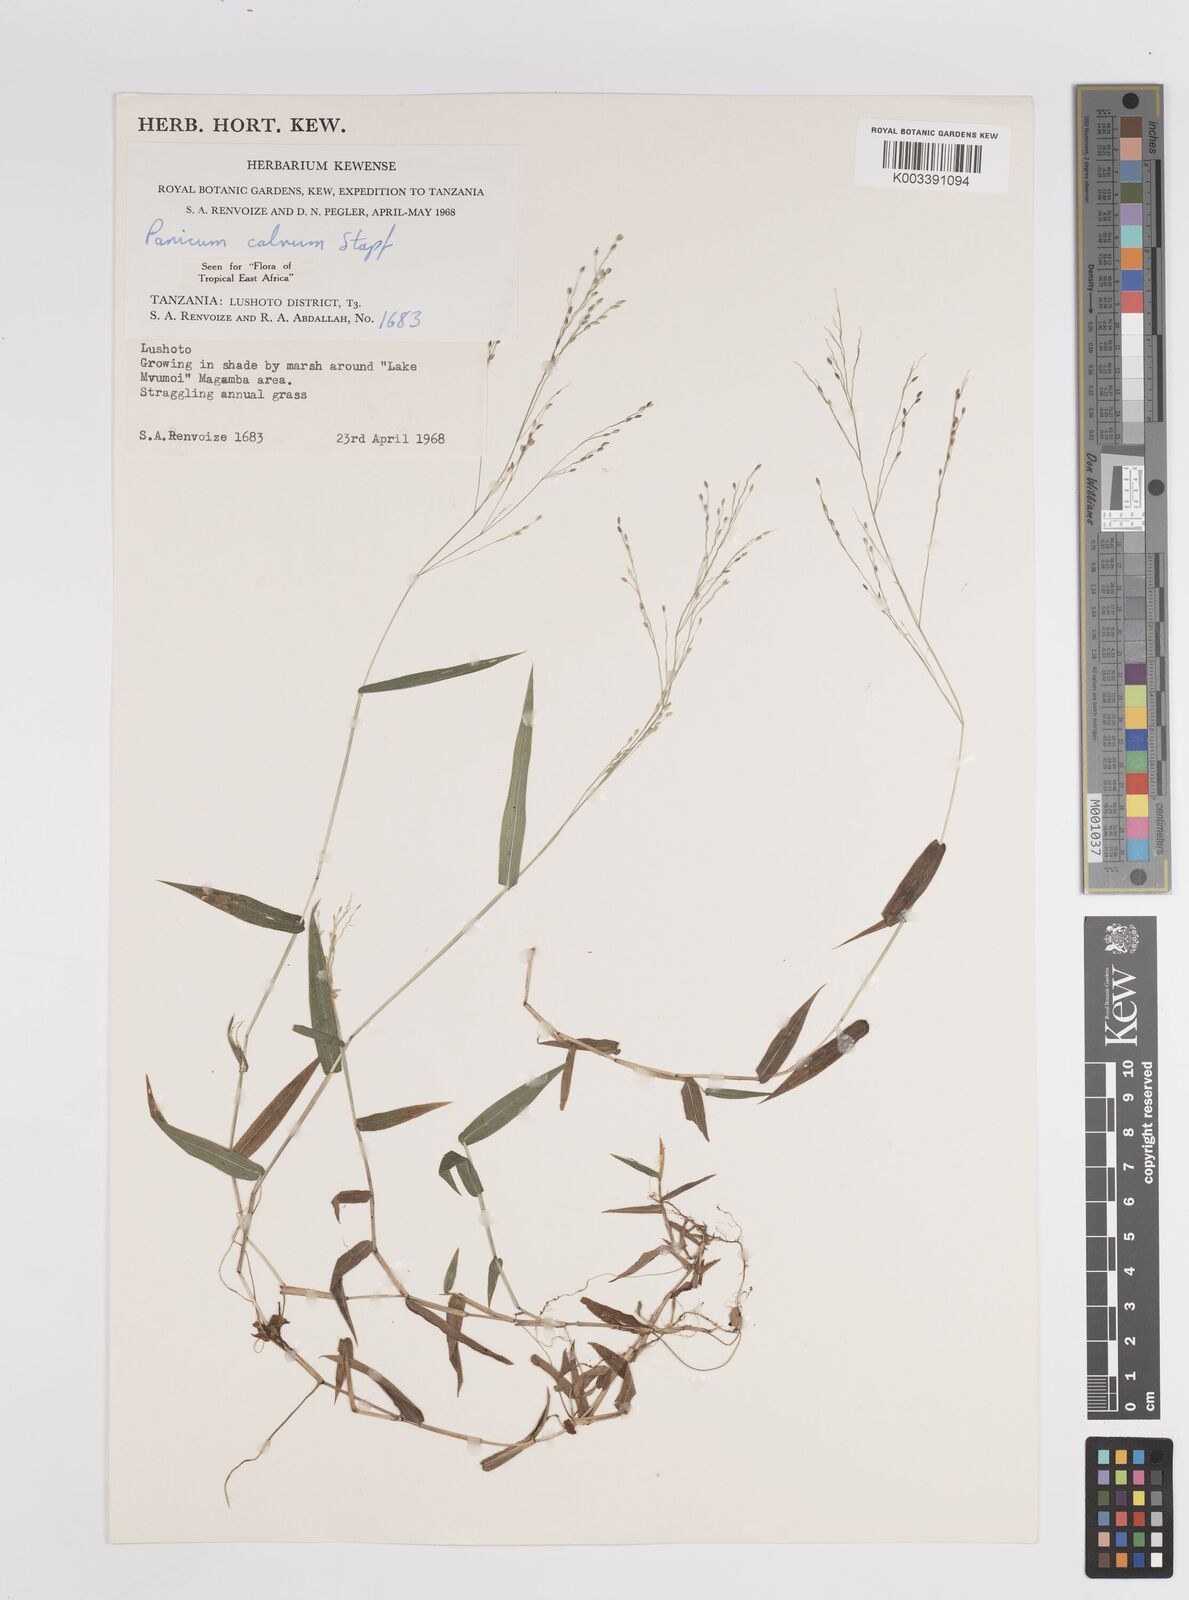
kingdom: Plantae
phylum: Tracheophyta
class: Liliopsida
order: Poales
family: Poaceae
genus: Panicum
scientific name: Panicum calvum
